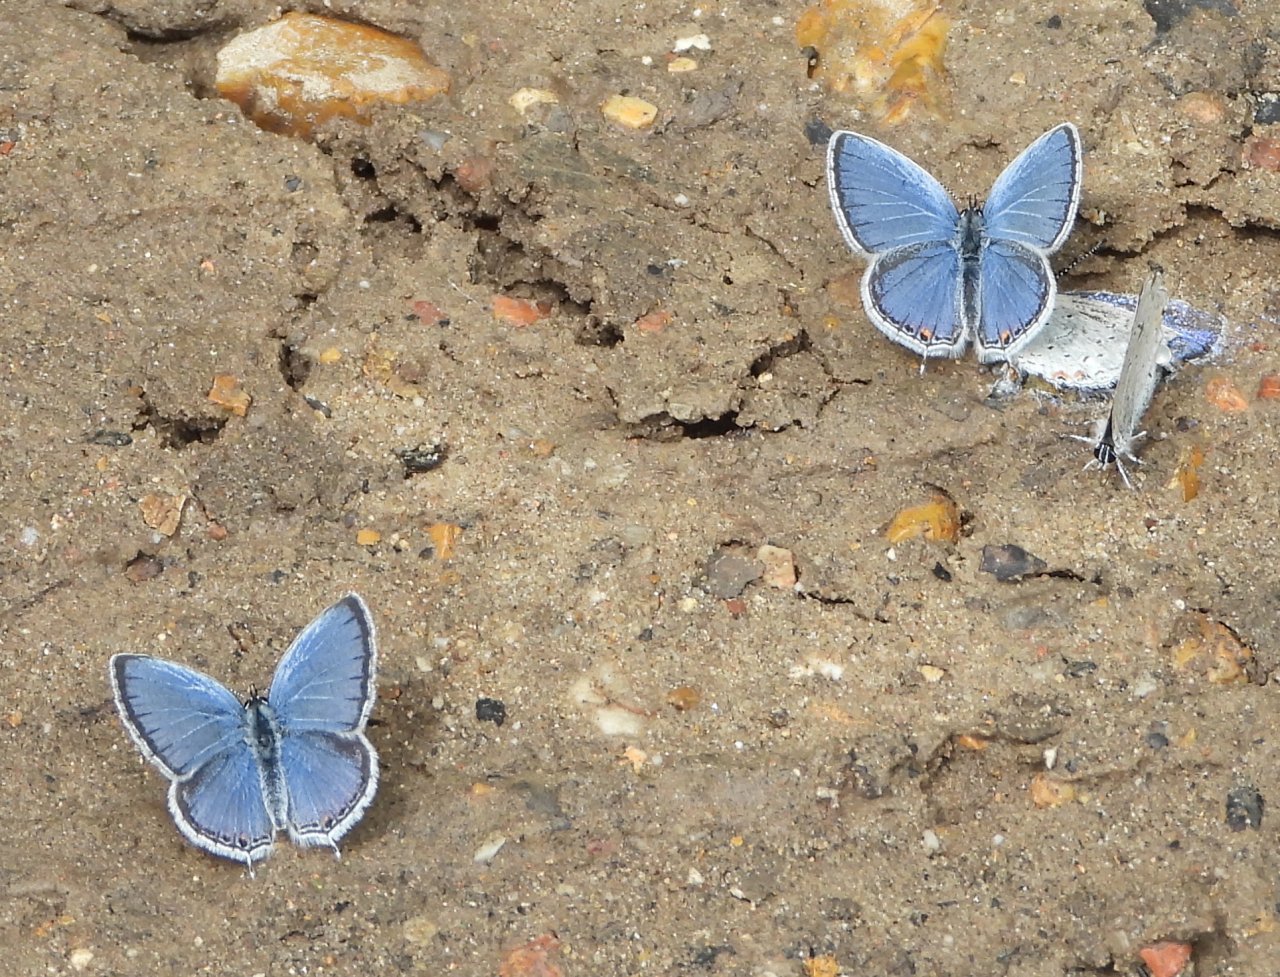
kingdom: Animalia
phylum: Arthropoda
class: Insecta
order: Lepidoptera
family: Lycaenidae
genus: Elkalyce
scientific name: Elkalyce comyntas
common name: Eastern Tailed-Blue
